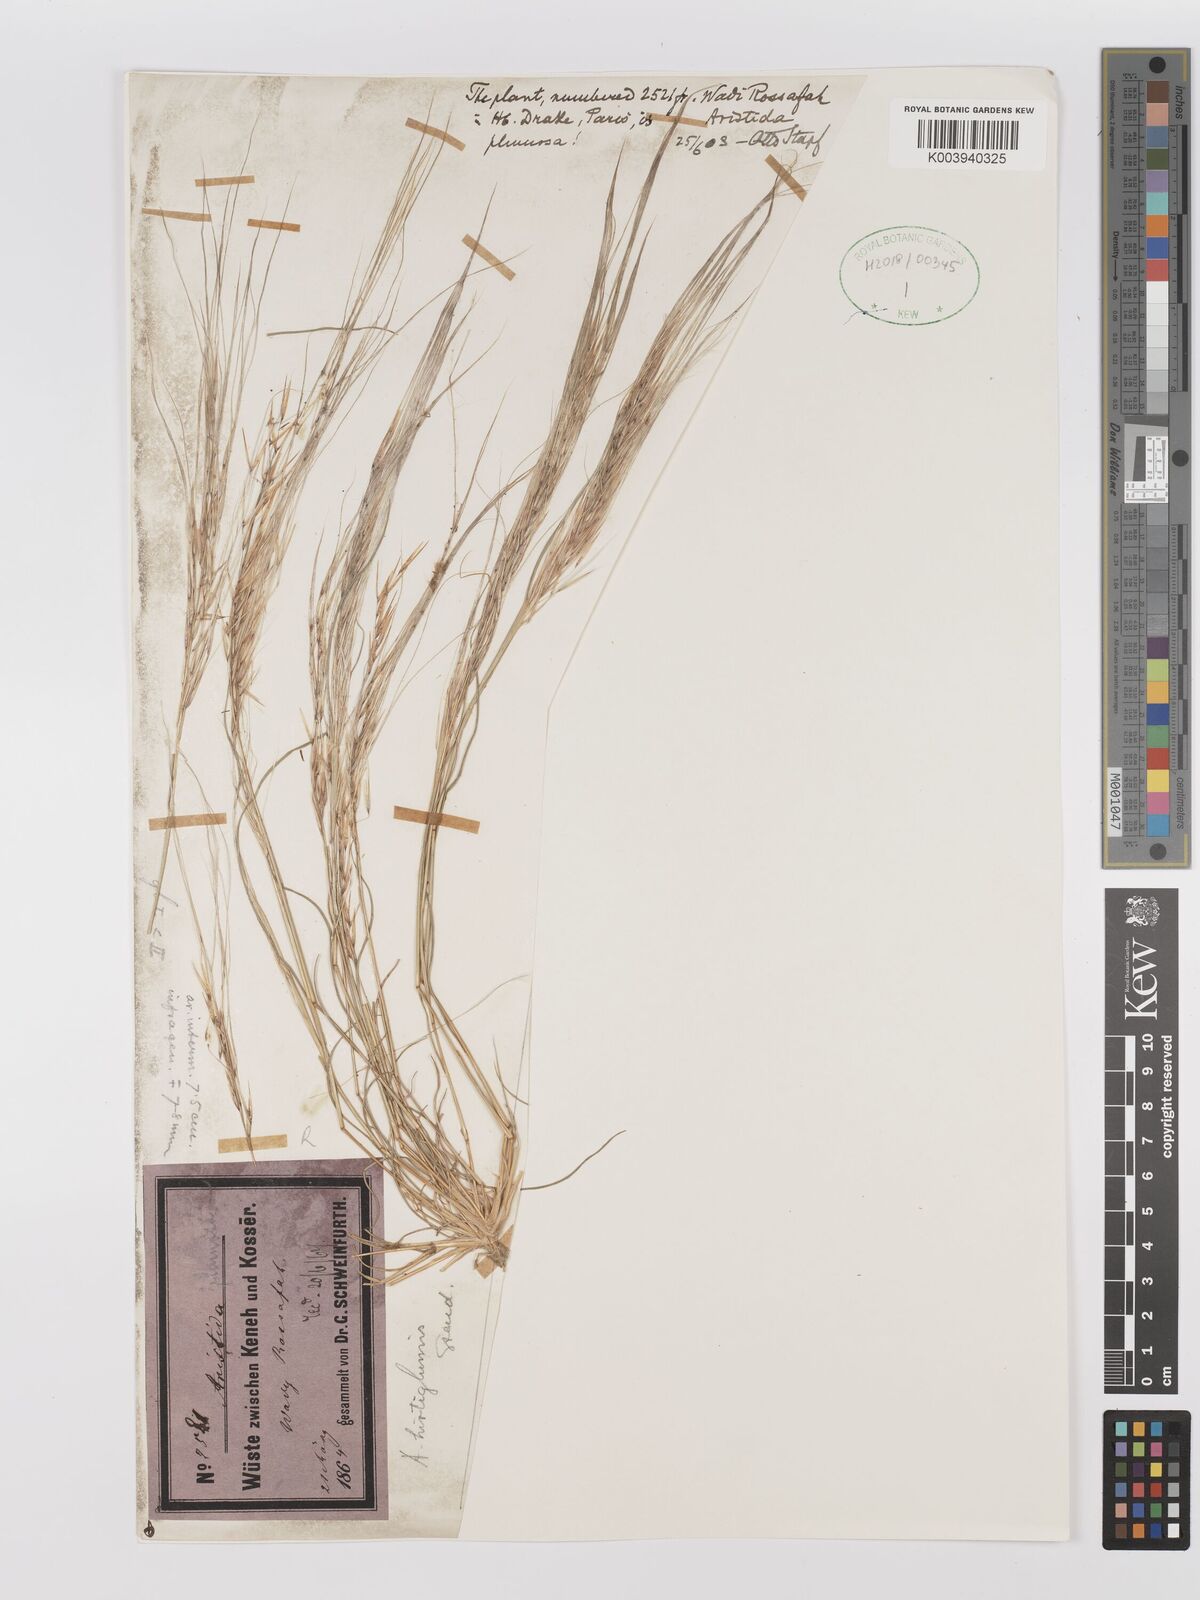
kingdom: Plantae
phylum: Tracheophyta
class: Liliopsida
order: Poales
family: Poaceae
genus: Stipagrostis
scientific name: Stipagrostis hirtigluma
